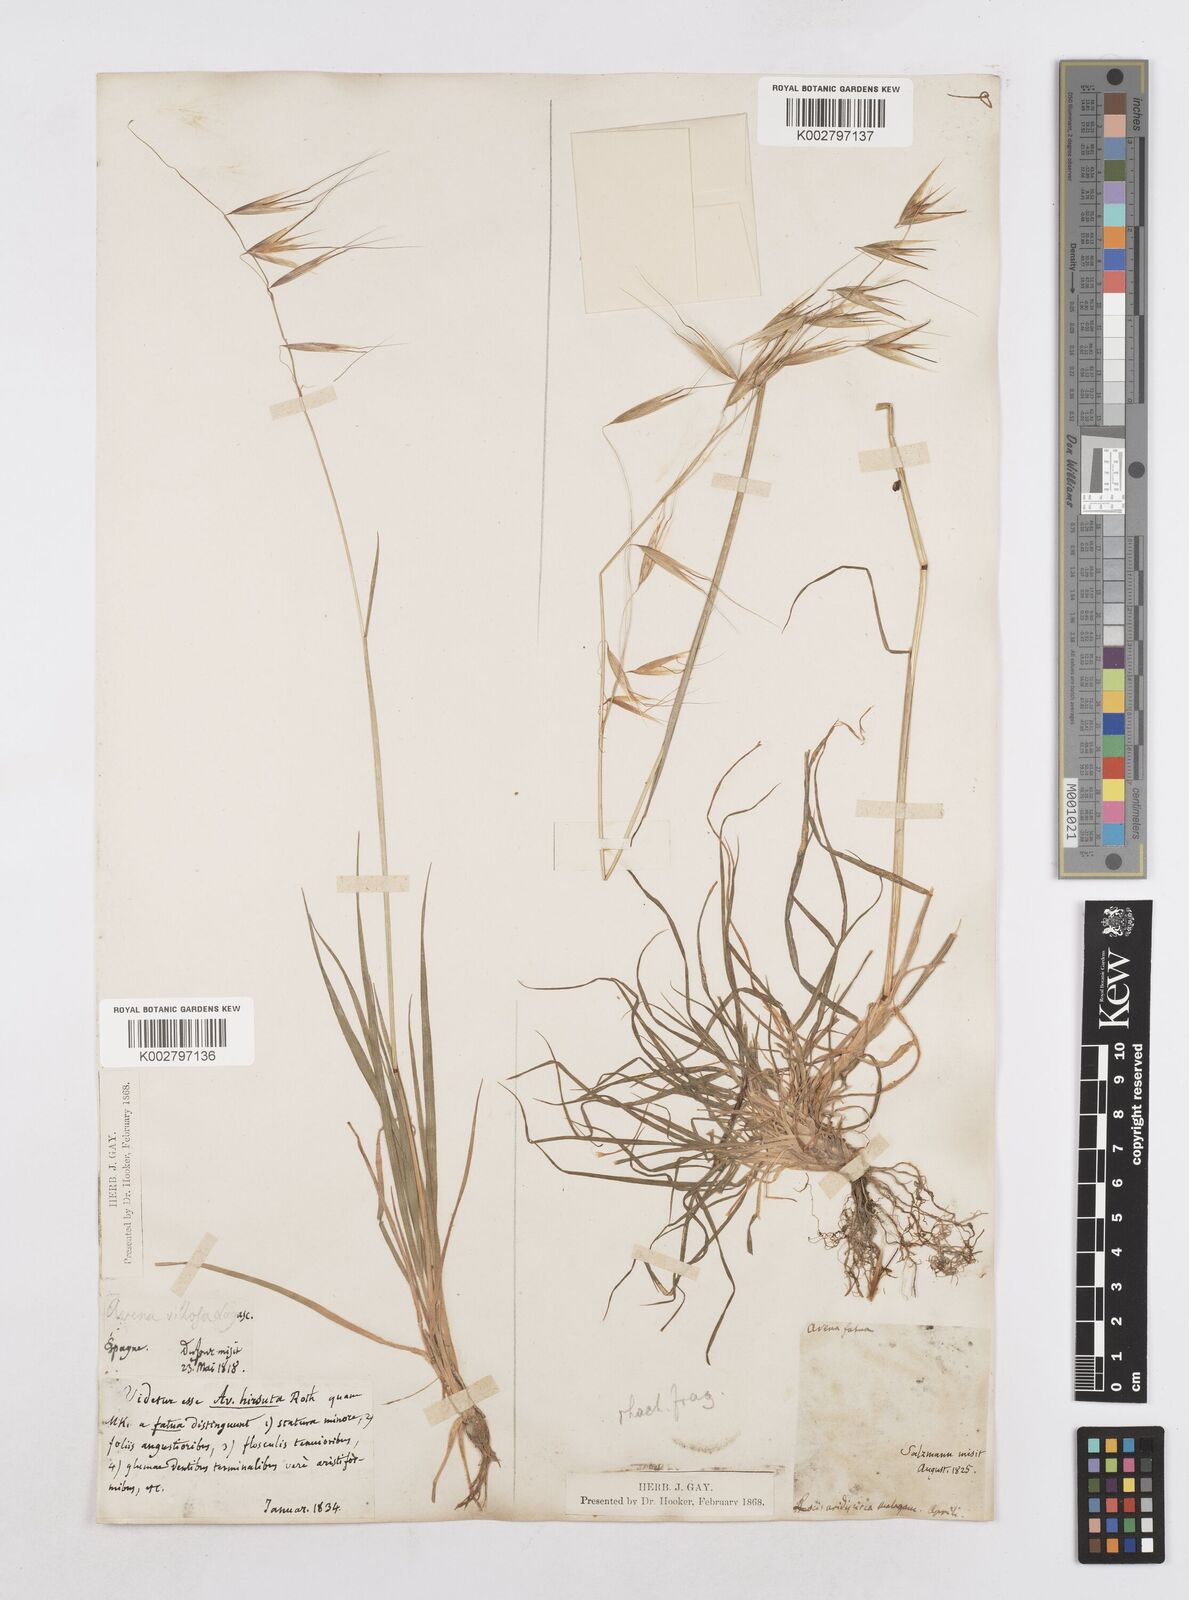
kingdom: Plantae
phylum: Tracheophyta
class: Liliopsida
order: Poales
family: Poaceae
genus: Avena
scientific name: Avena
